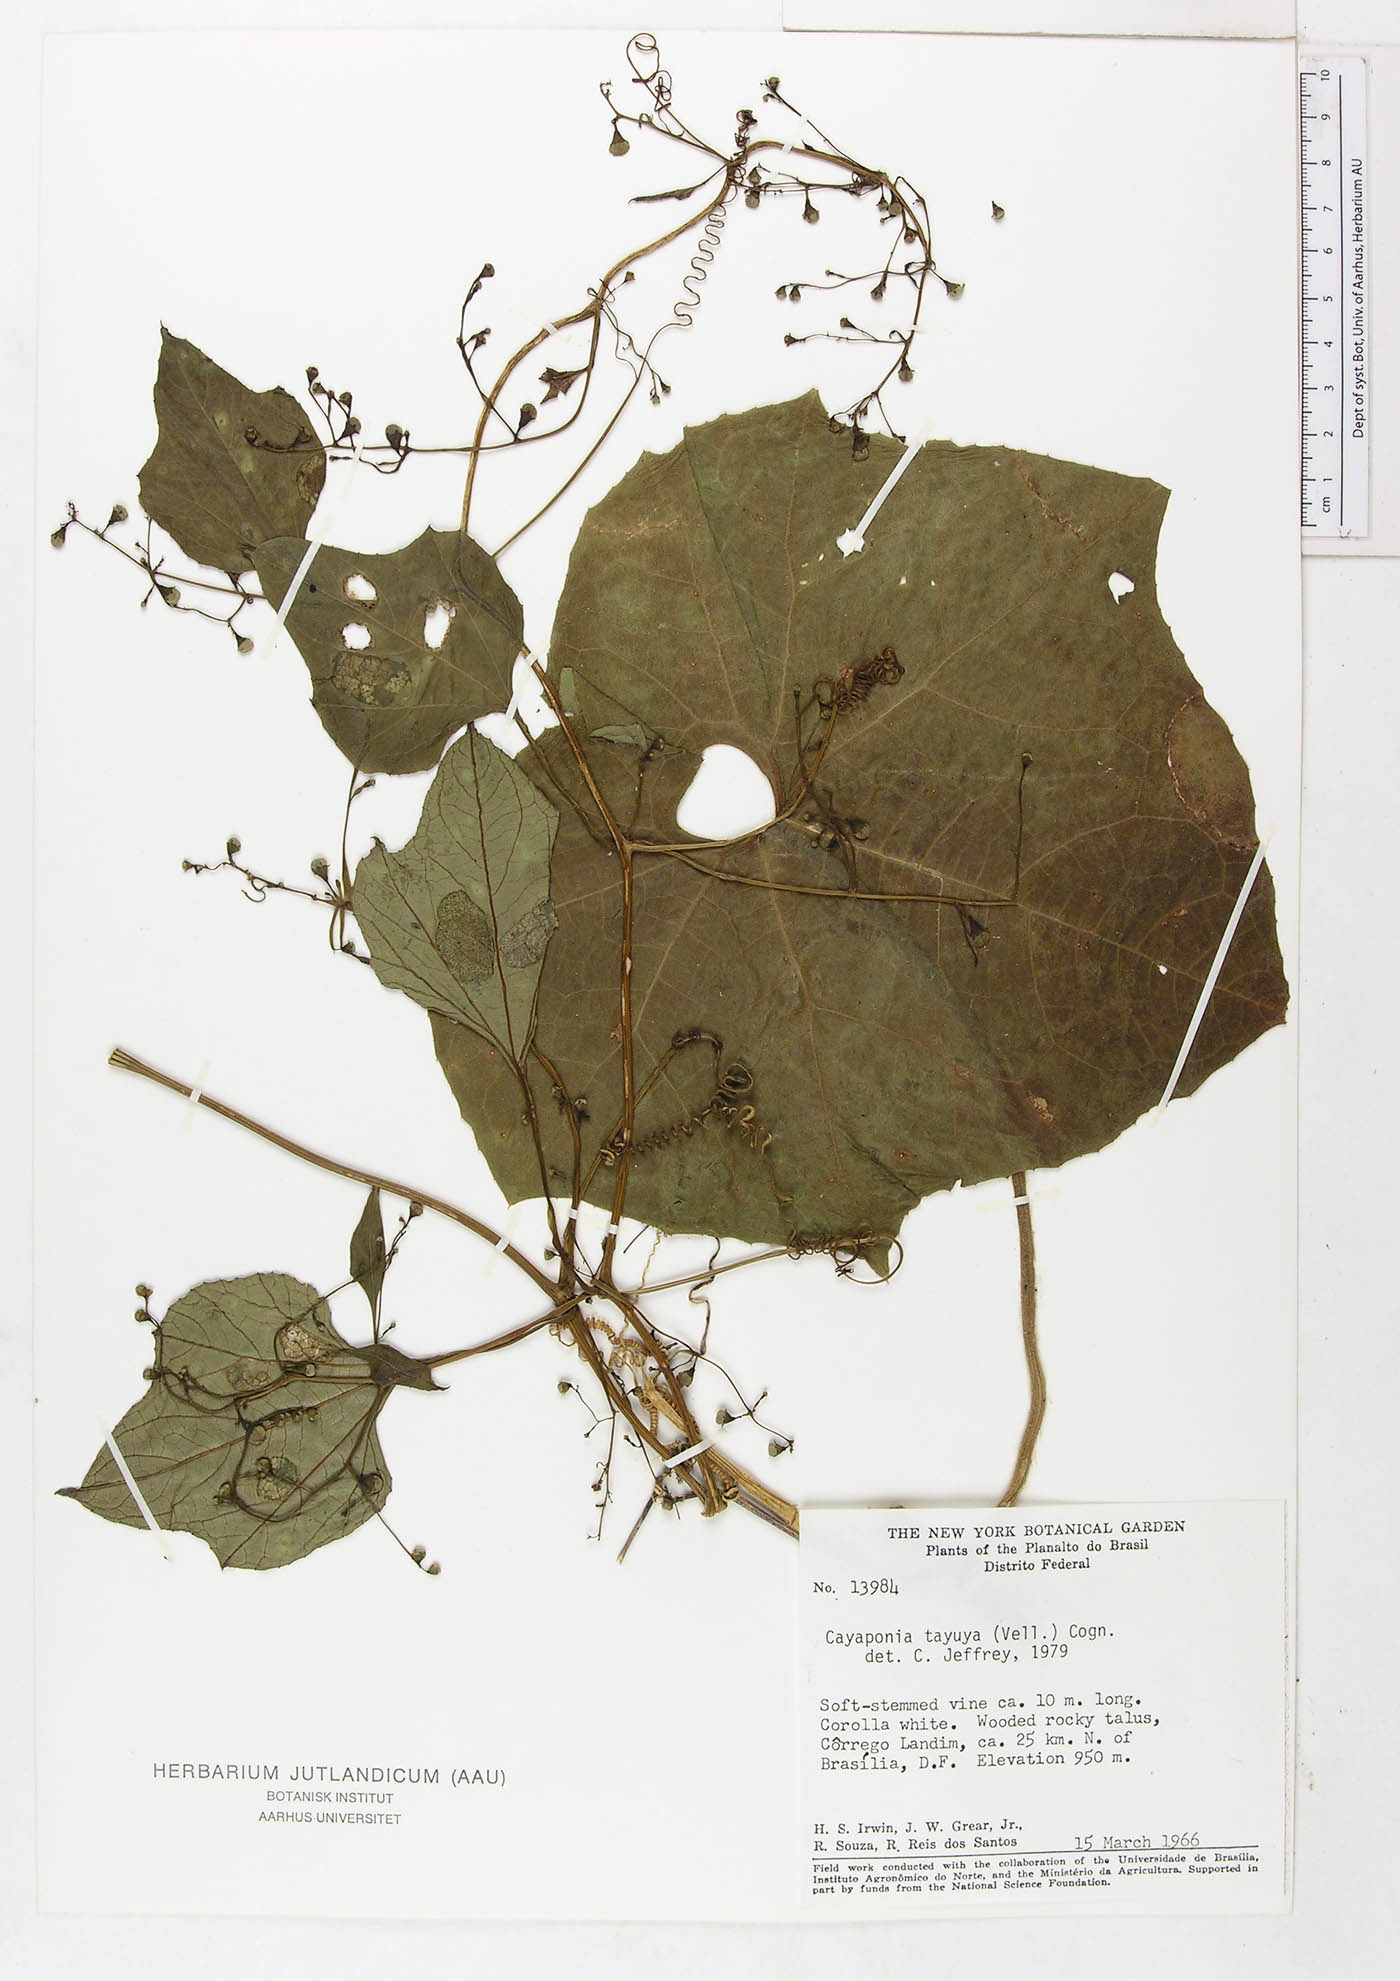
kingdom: Plantae
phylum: Tracheophyta
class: Magnoliopsida
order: Cucurbitales
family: Cucurbitaceae
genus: Cayaponia
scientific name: Cayaponia tayuya
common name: Tayuya
